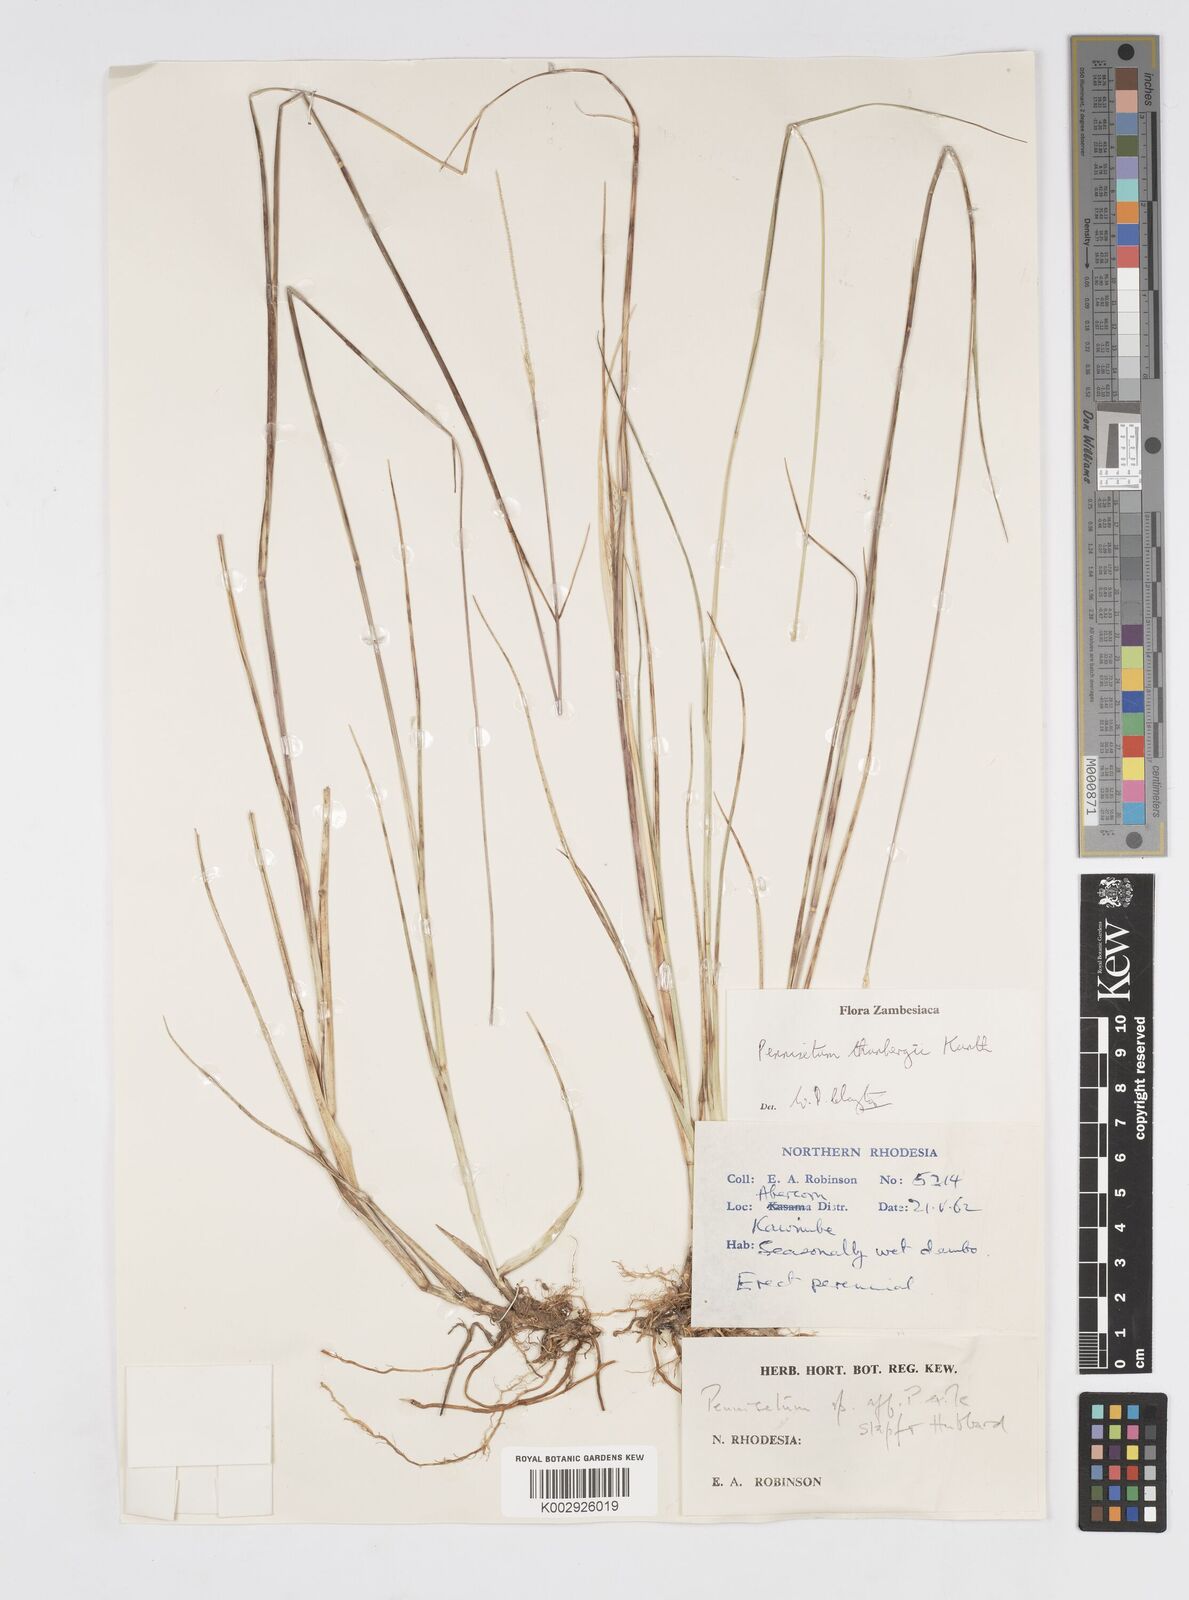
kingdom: Plantae
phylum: Tracheophyta
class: Liliopsida
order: Poales
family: Poaceae
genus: Cenchrus
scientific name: Cenchrus geniculatus
